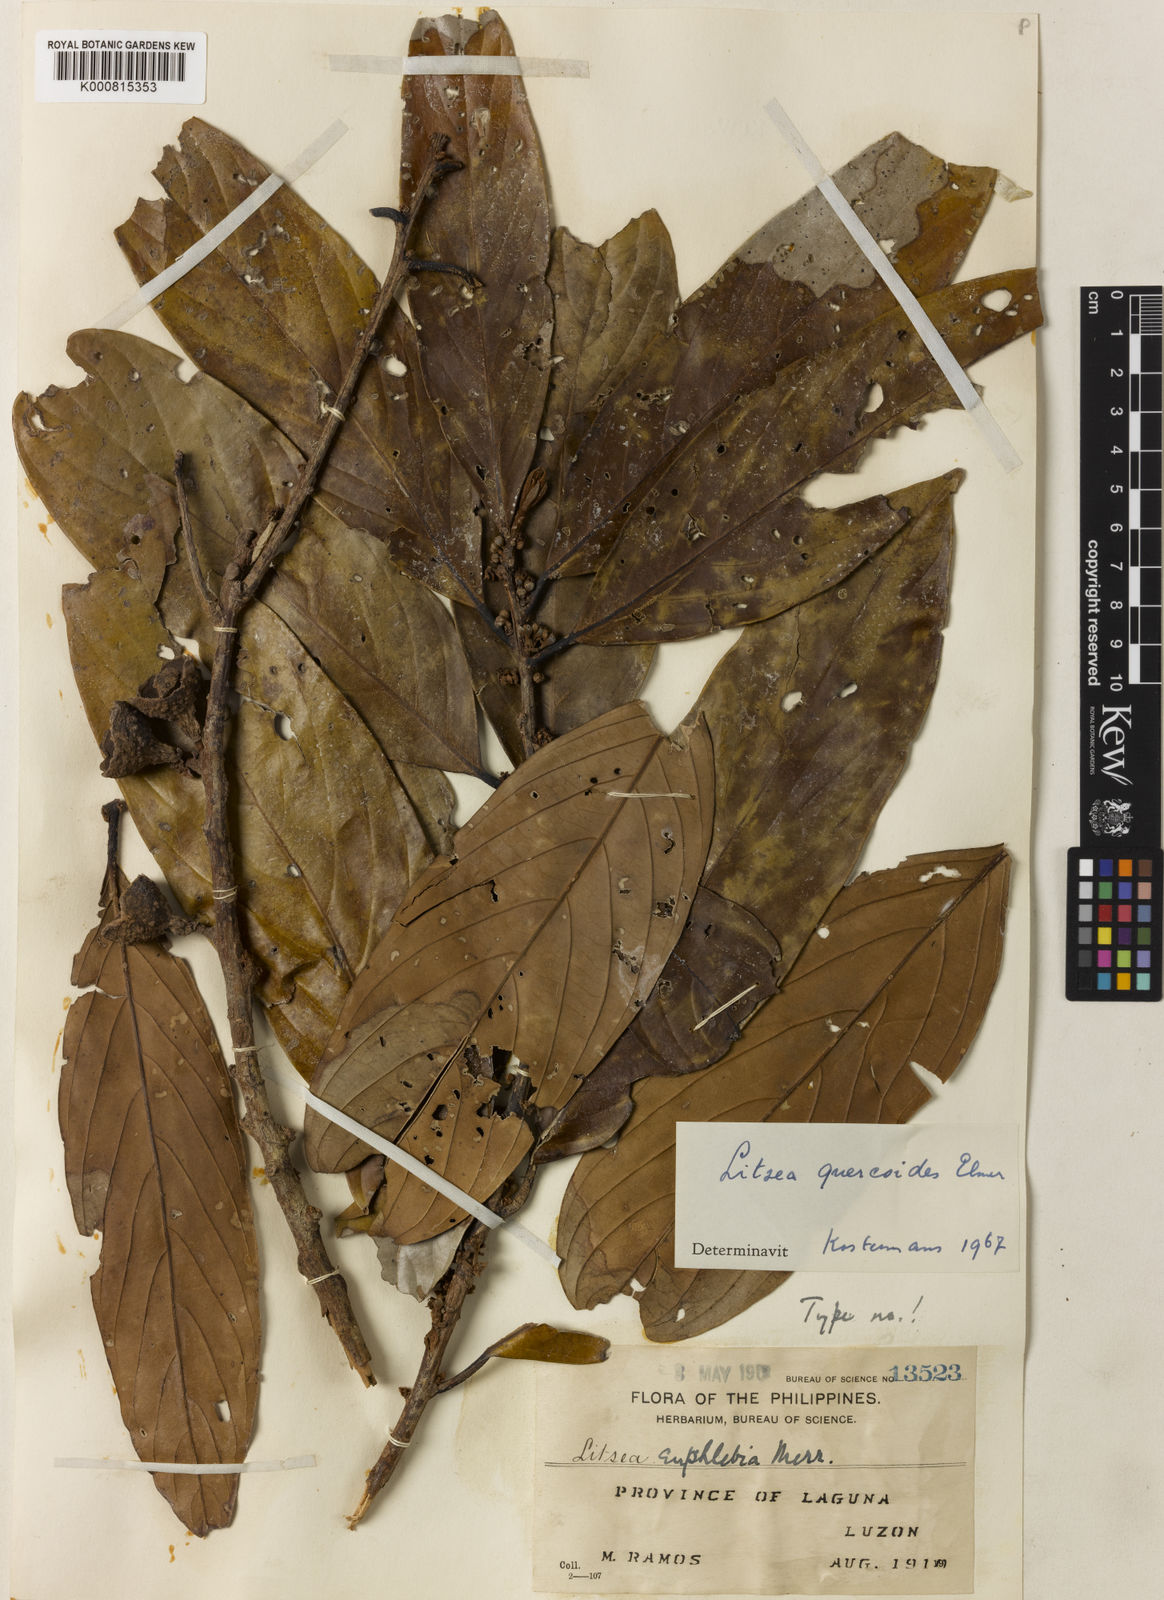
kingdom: Plantae
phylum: Tracheophyta
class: Magnoliopsida
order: Laurales
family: Lauraceae
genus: Litsea
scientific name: Litsea quercoides
